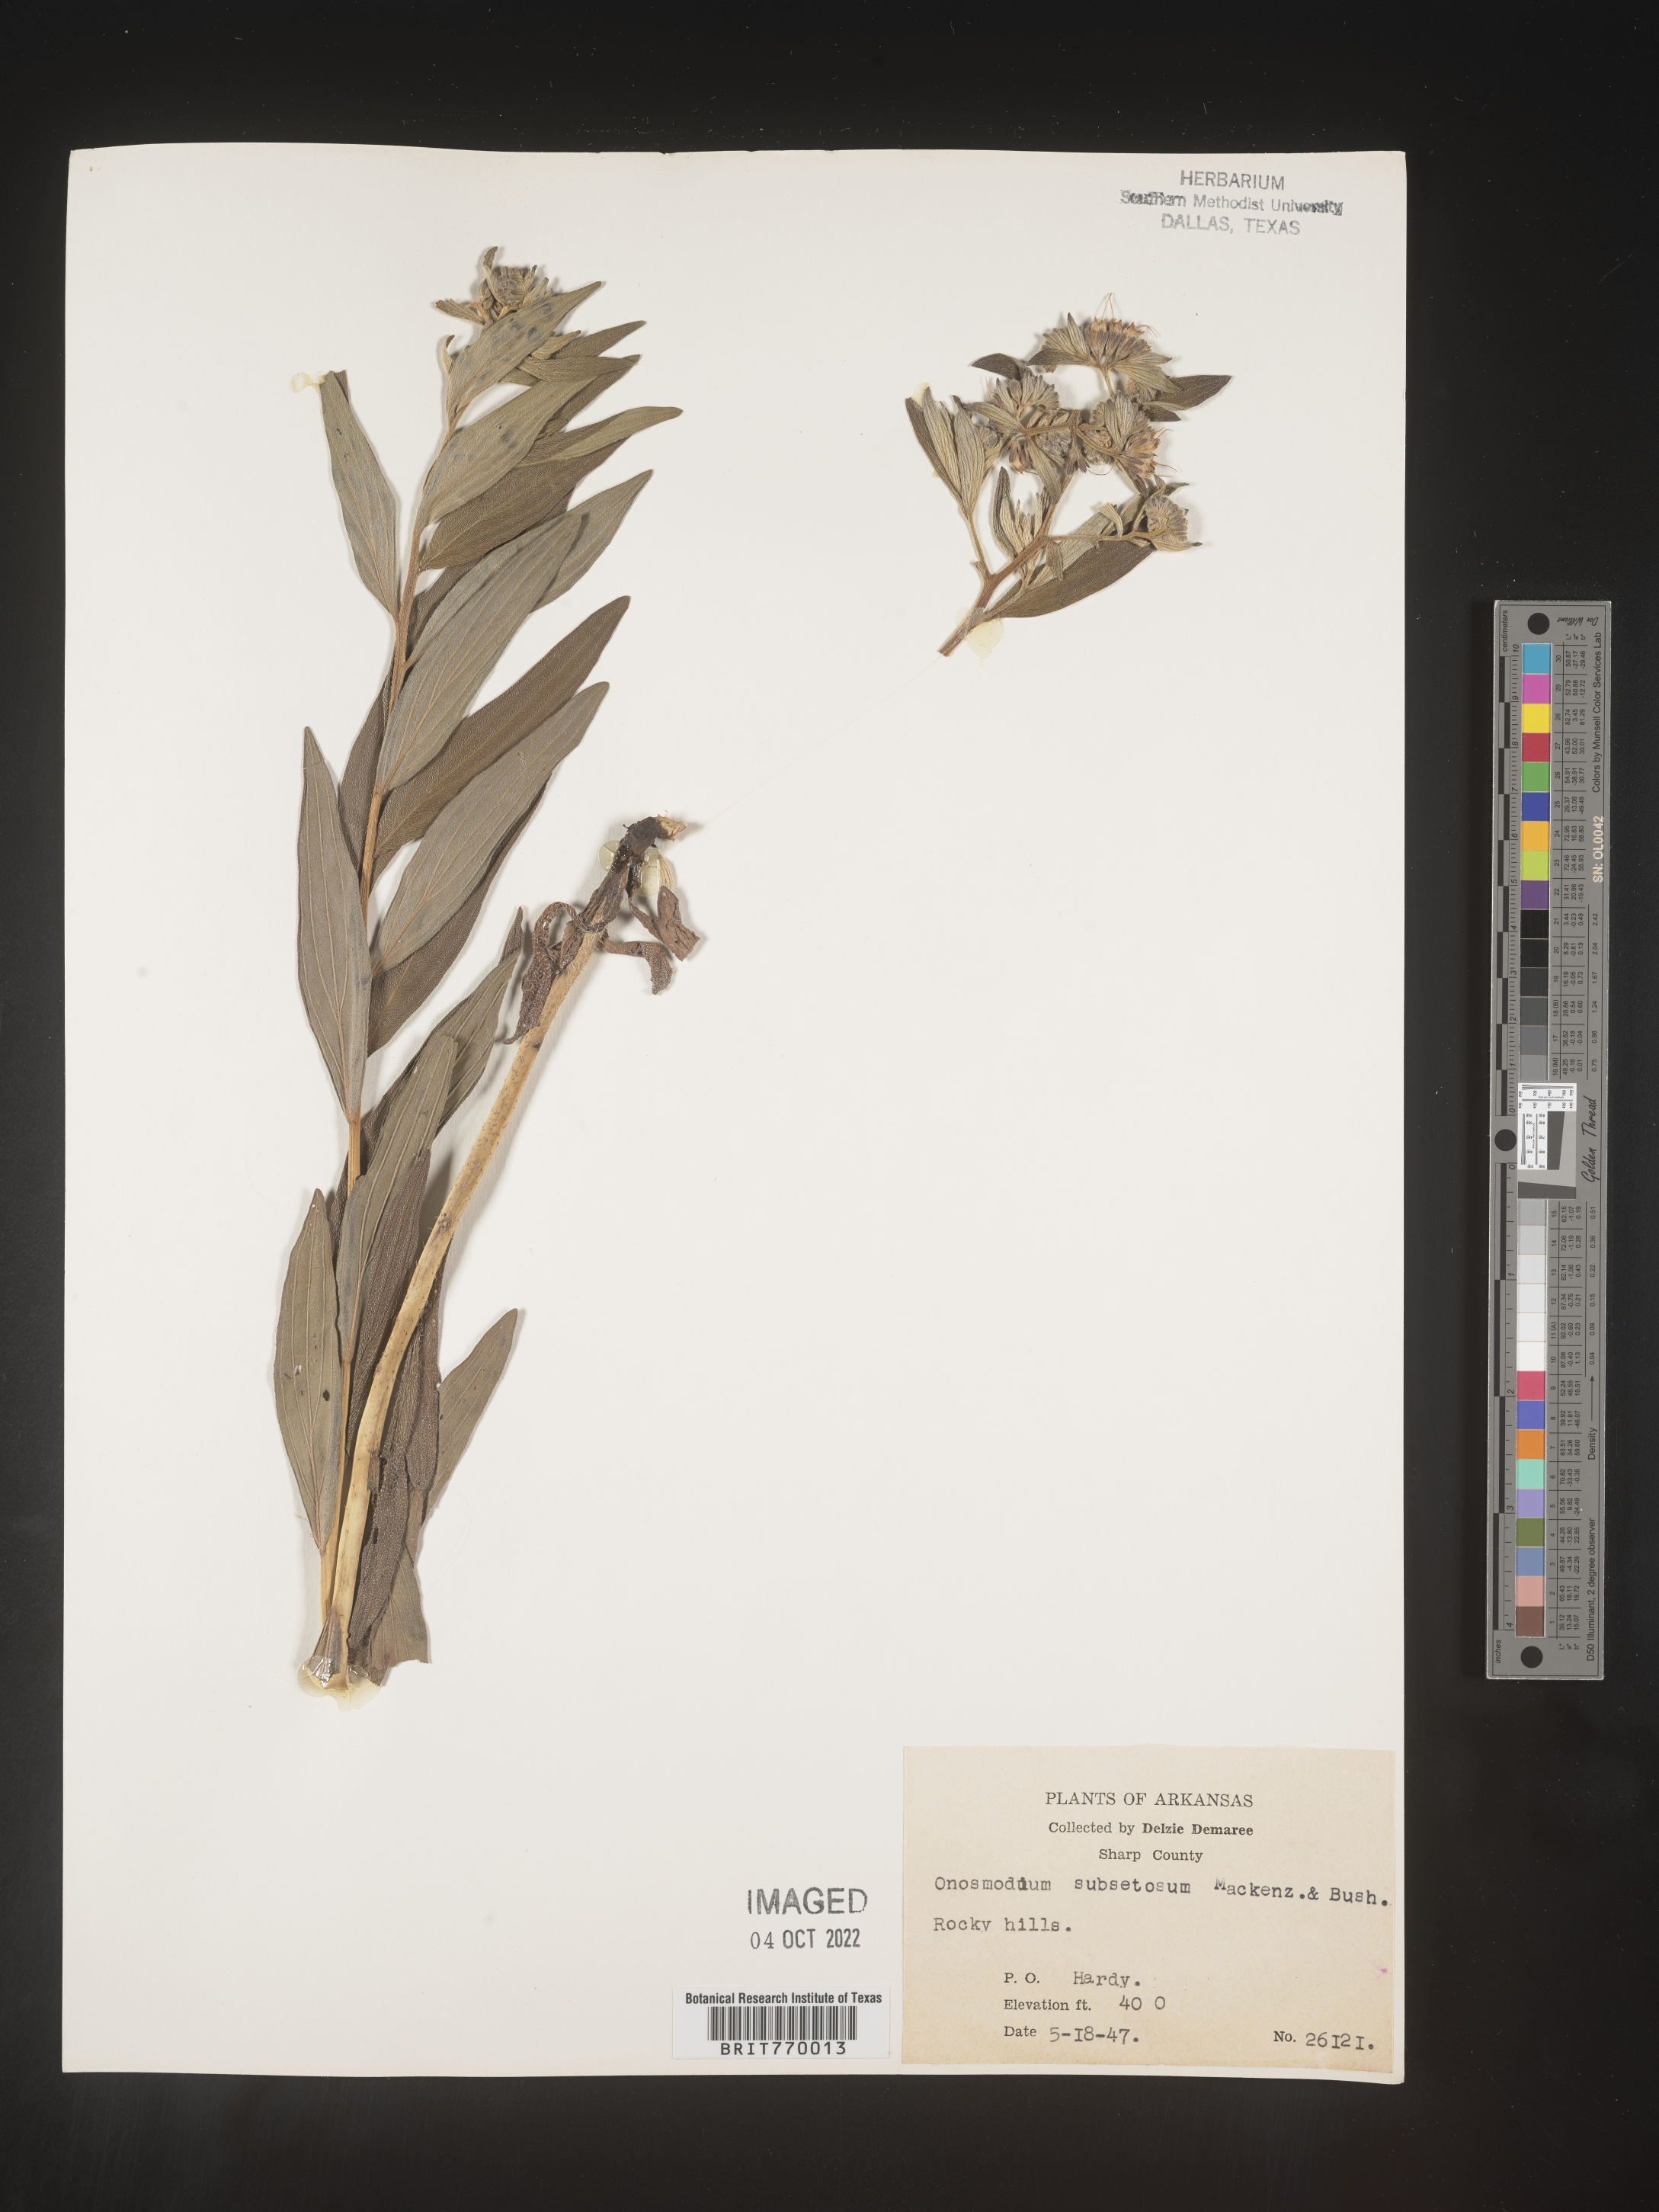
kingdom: Plantae
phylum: Tracheophyta
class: Magnoliopsida
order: Boraginales
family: Boraginaceae
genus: Lithospermum
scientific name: Lithospermum subsetosum
